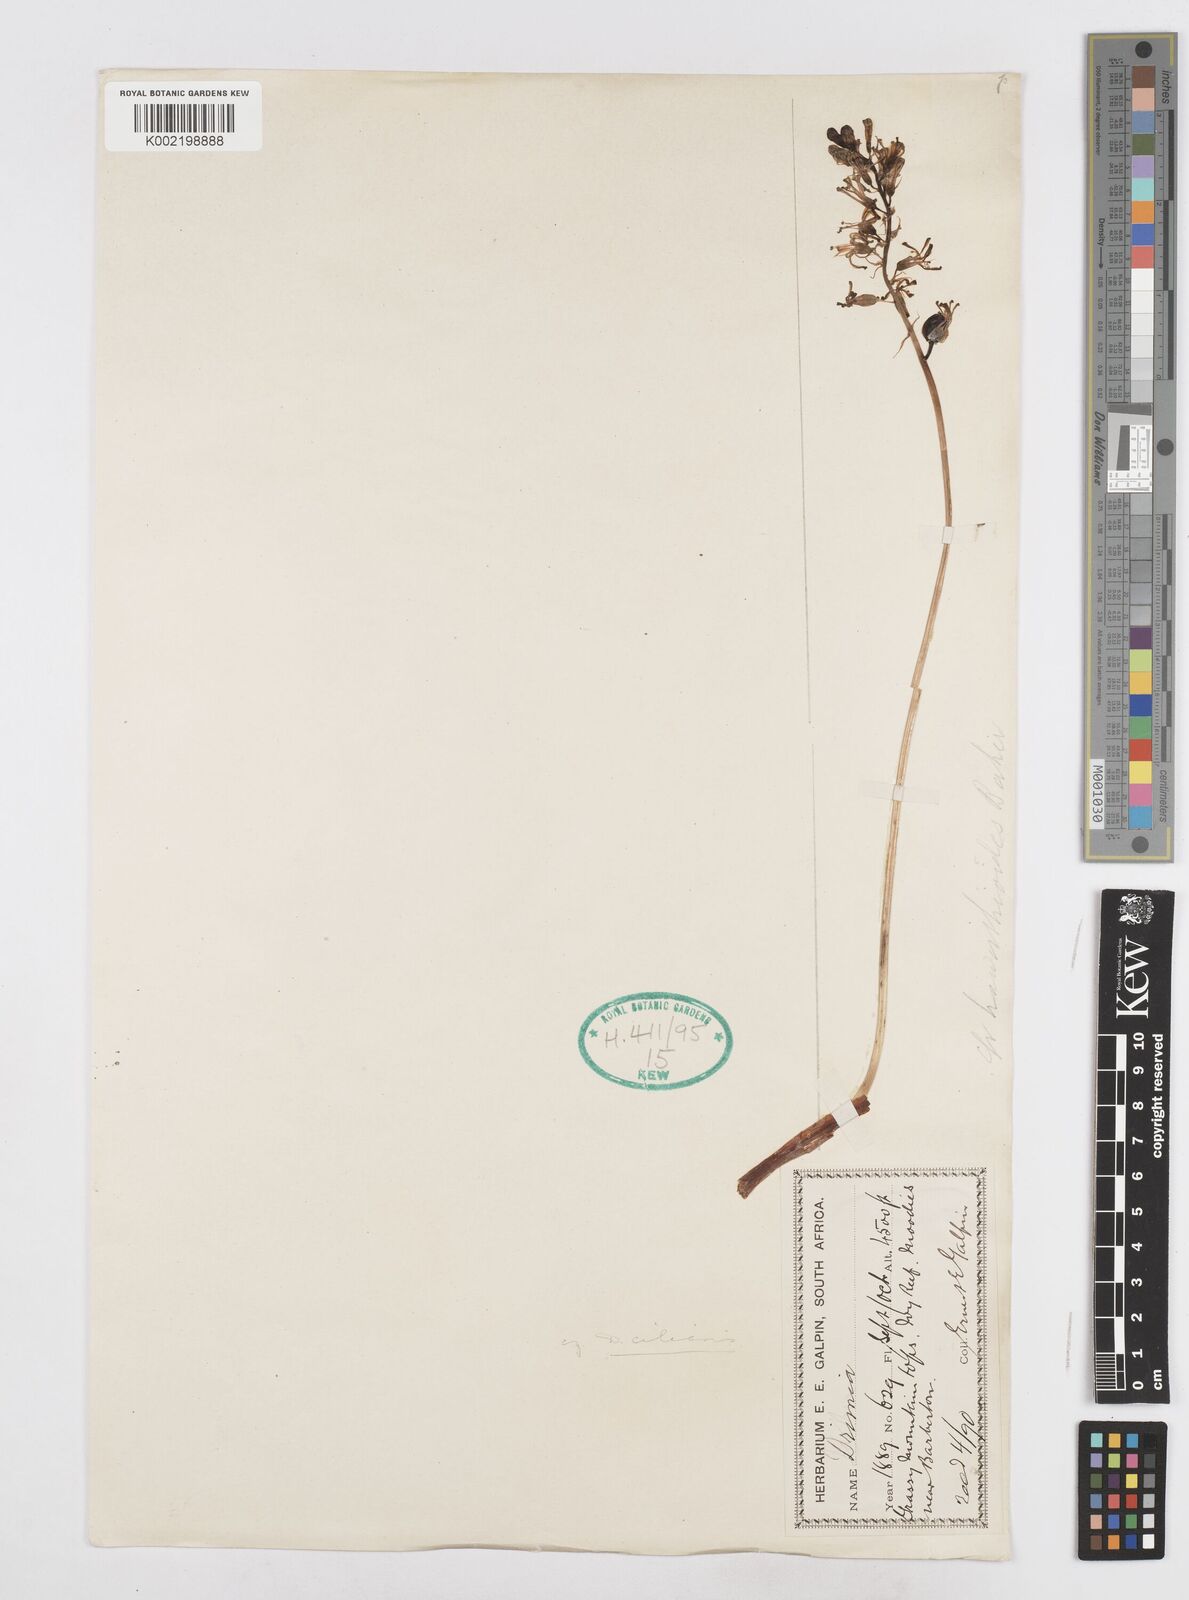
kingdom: Plantae
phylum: Tracheophyta
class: Liliopsida
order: Asparagales
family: Asparagaceae
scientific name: Asparagaceae
